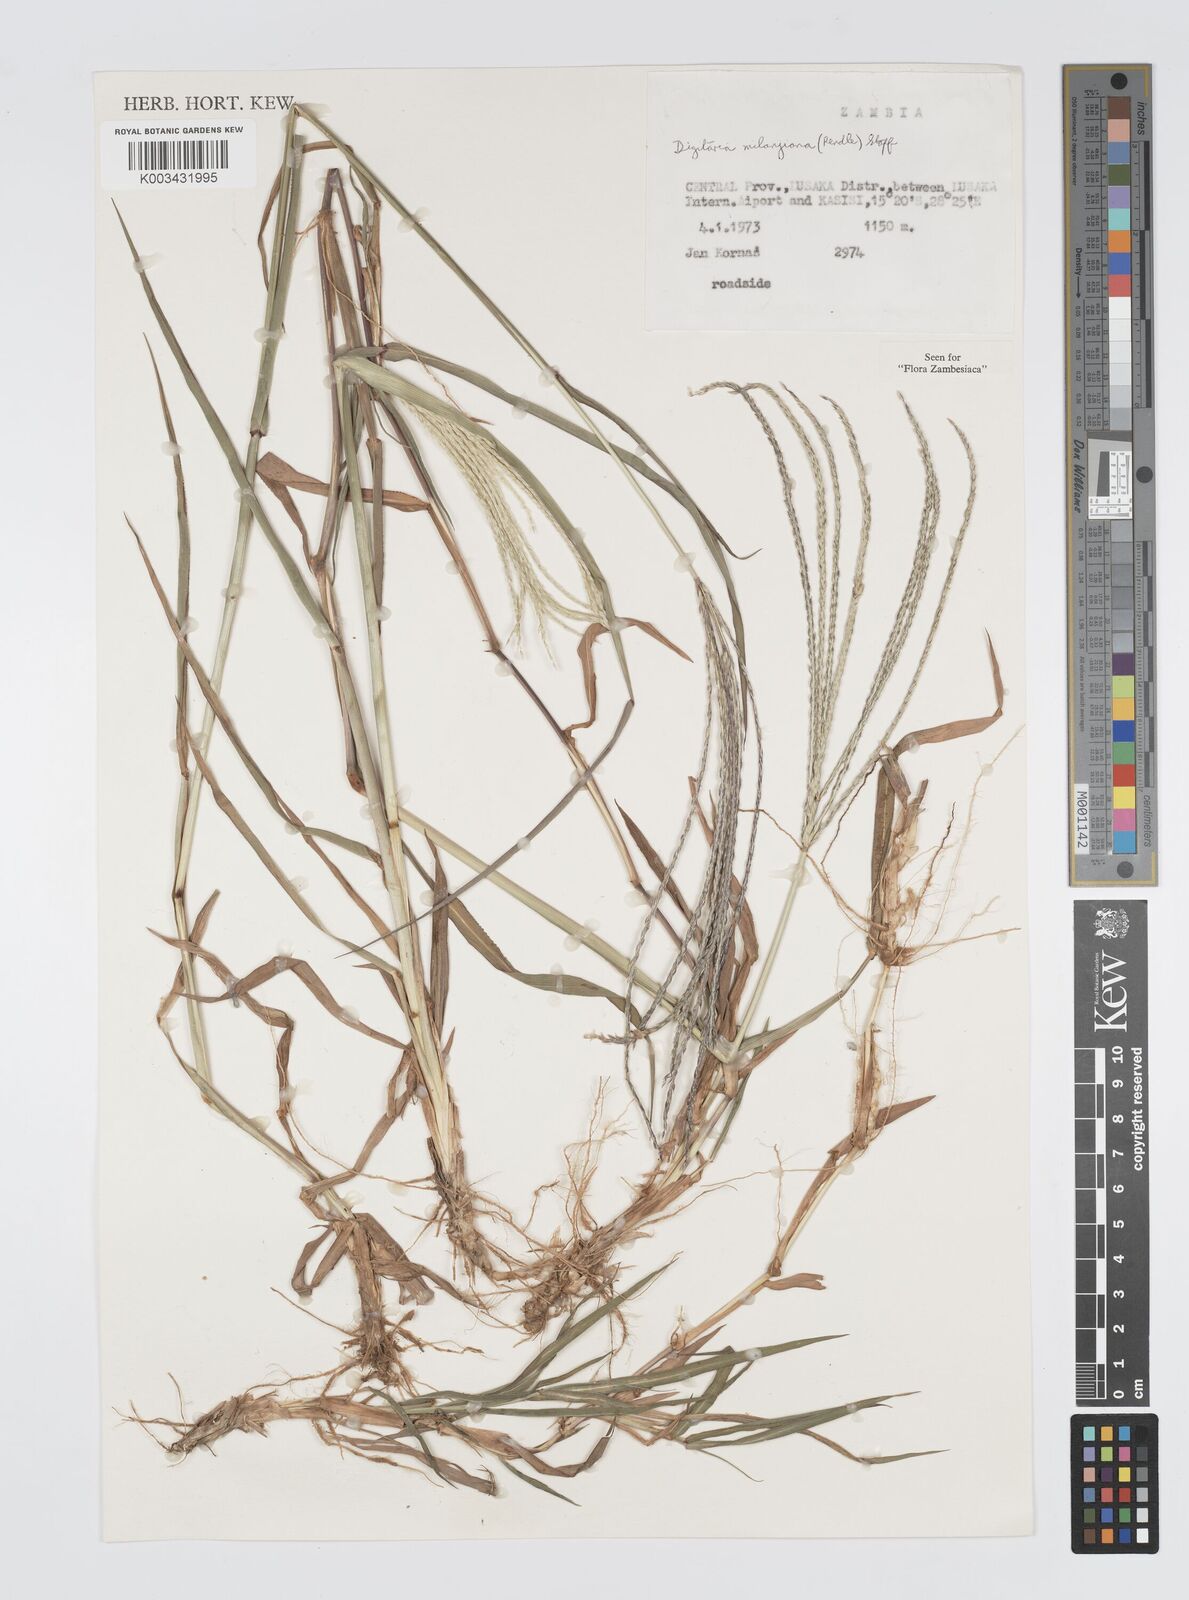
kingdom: Plantae
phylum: Tracheophyta
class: Liliopsida
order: Poales
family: Poaceae
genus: Digitaria
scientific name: Digitaria milanjiana
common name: Madagascar crabgrass
